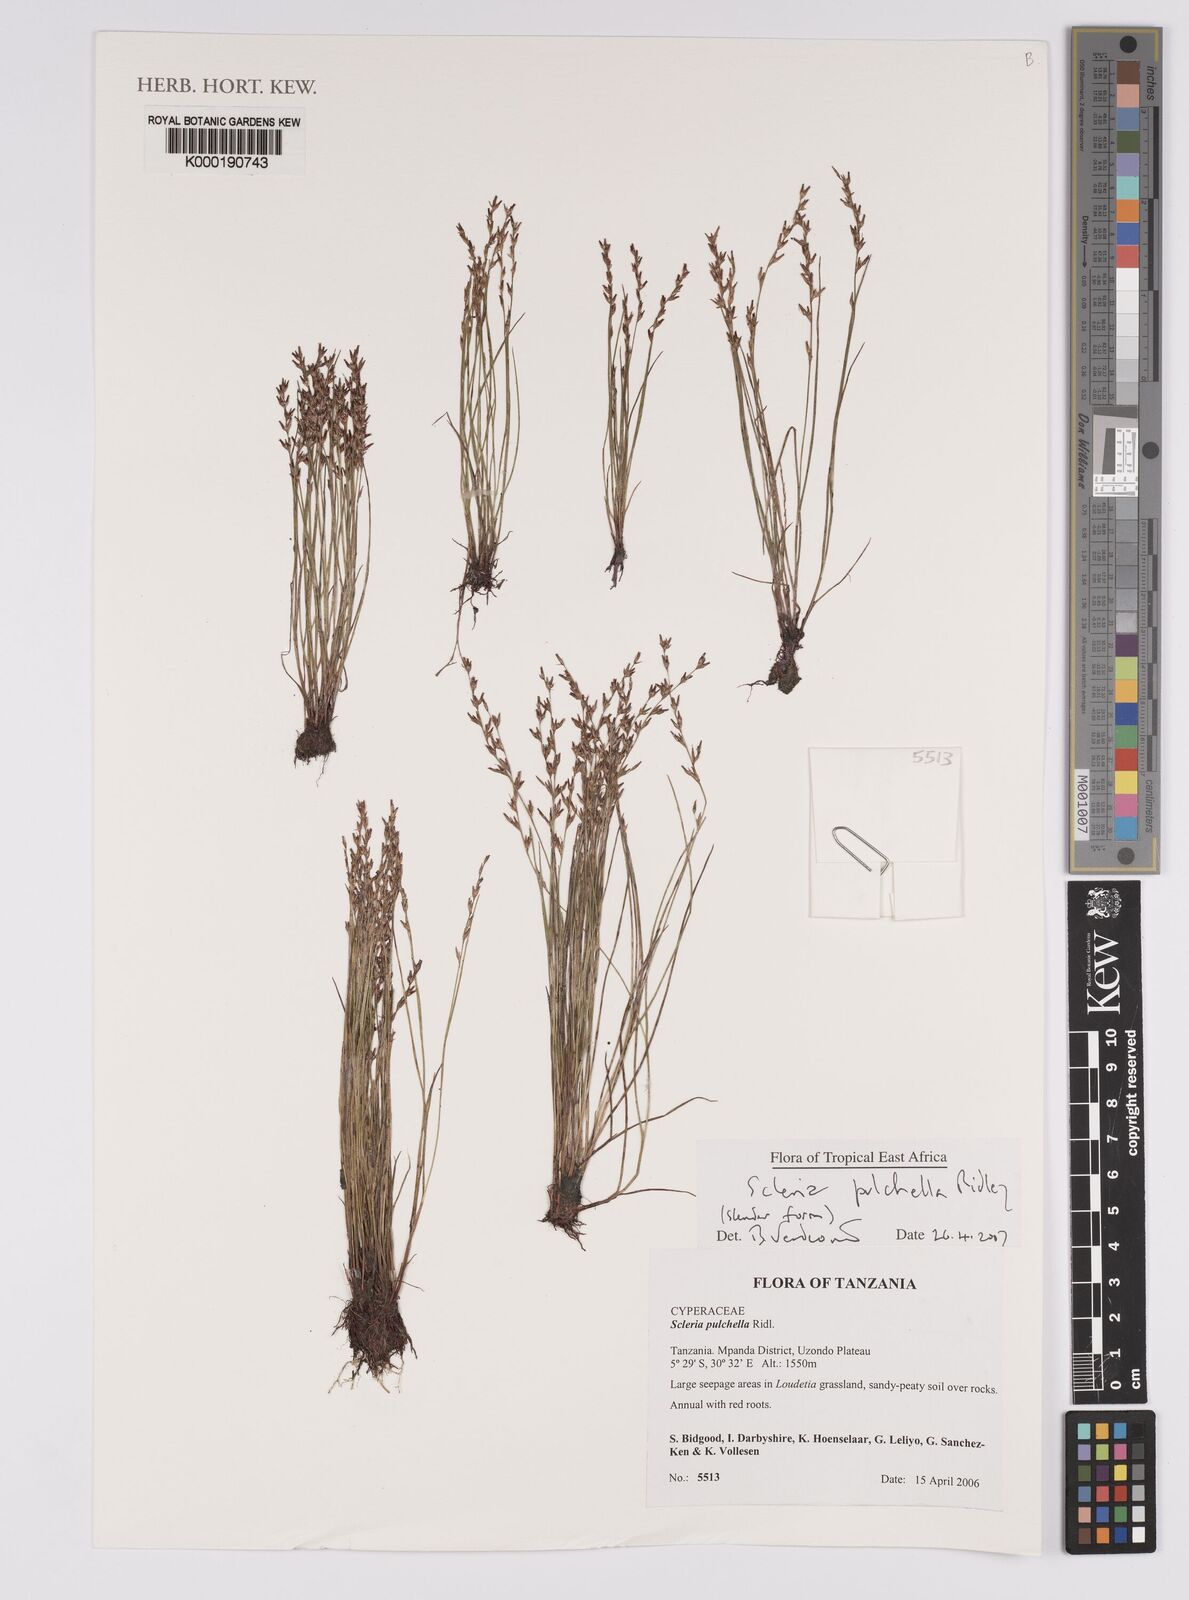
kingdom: Plantae
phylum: Tracheophyta
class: Liliopsida
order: Poales
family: Cyperaceae
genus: Scleria
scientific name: Scleria pulchella
